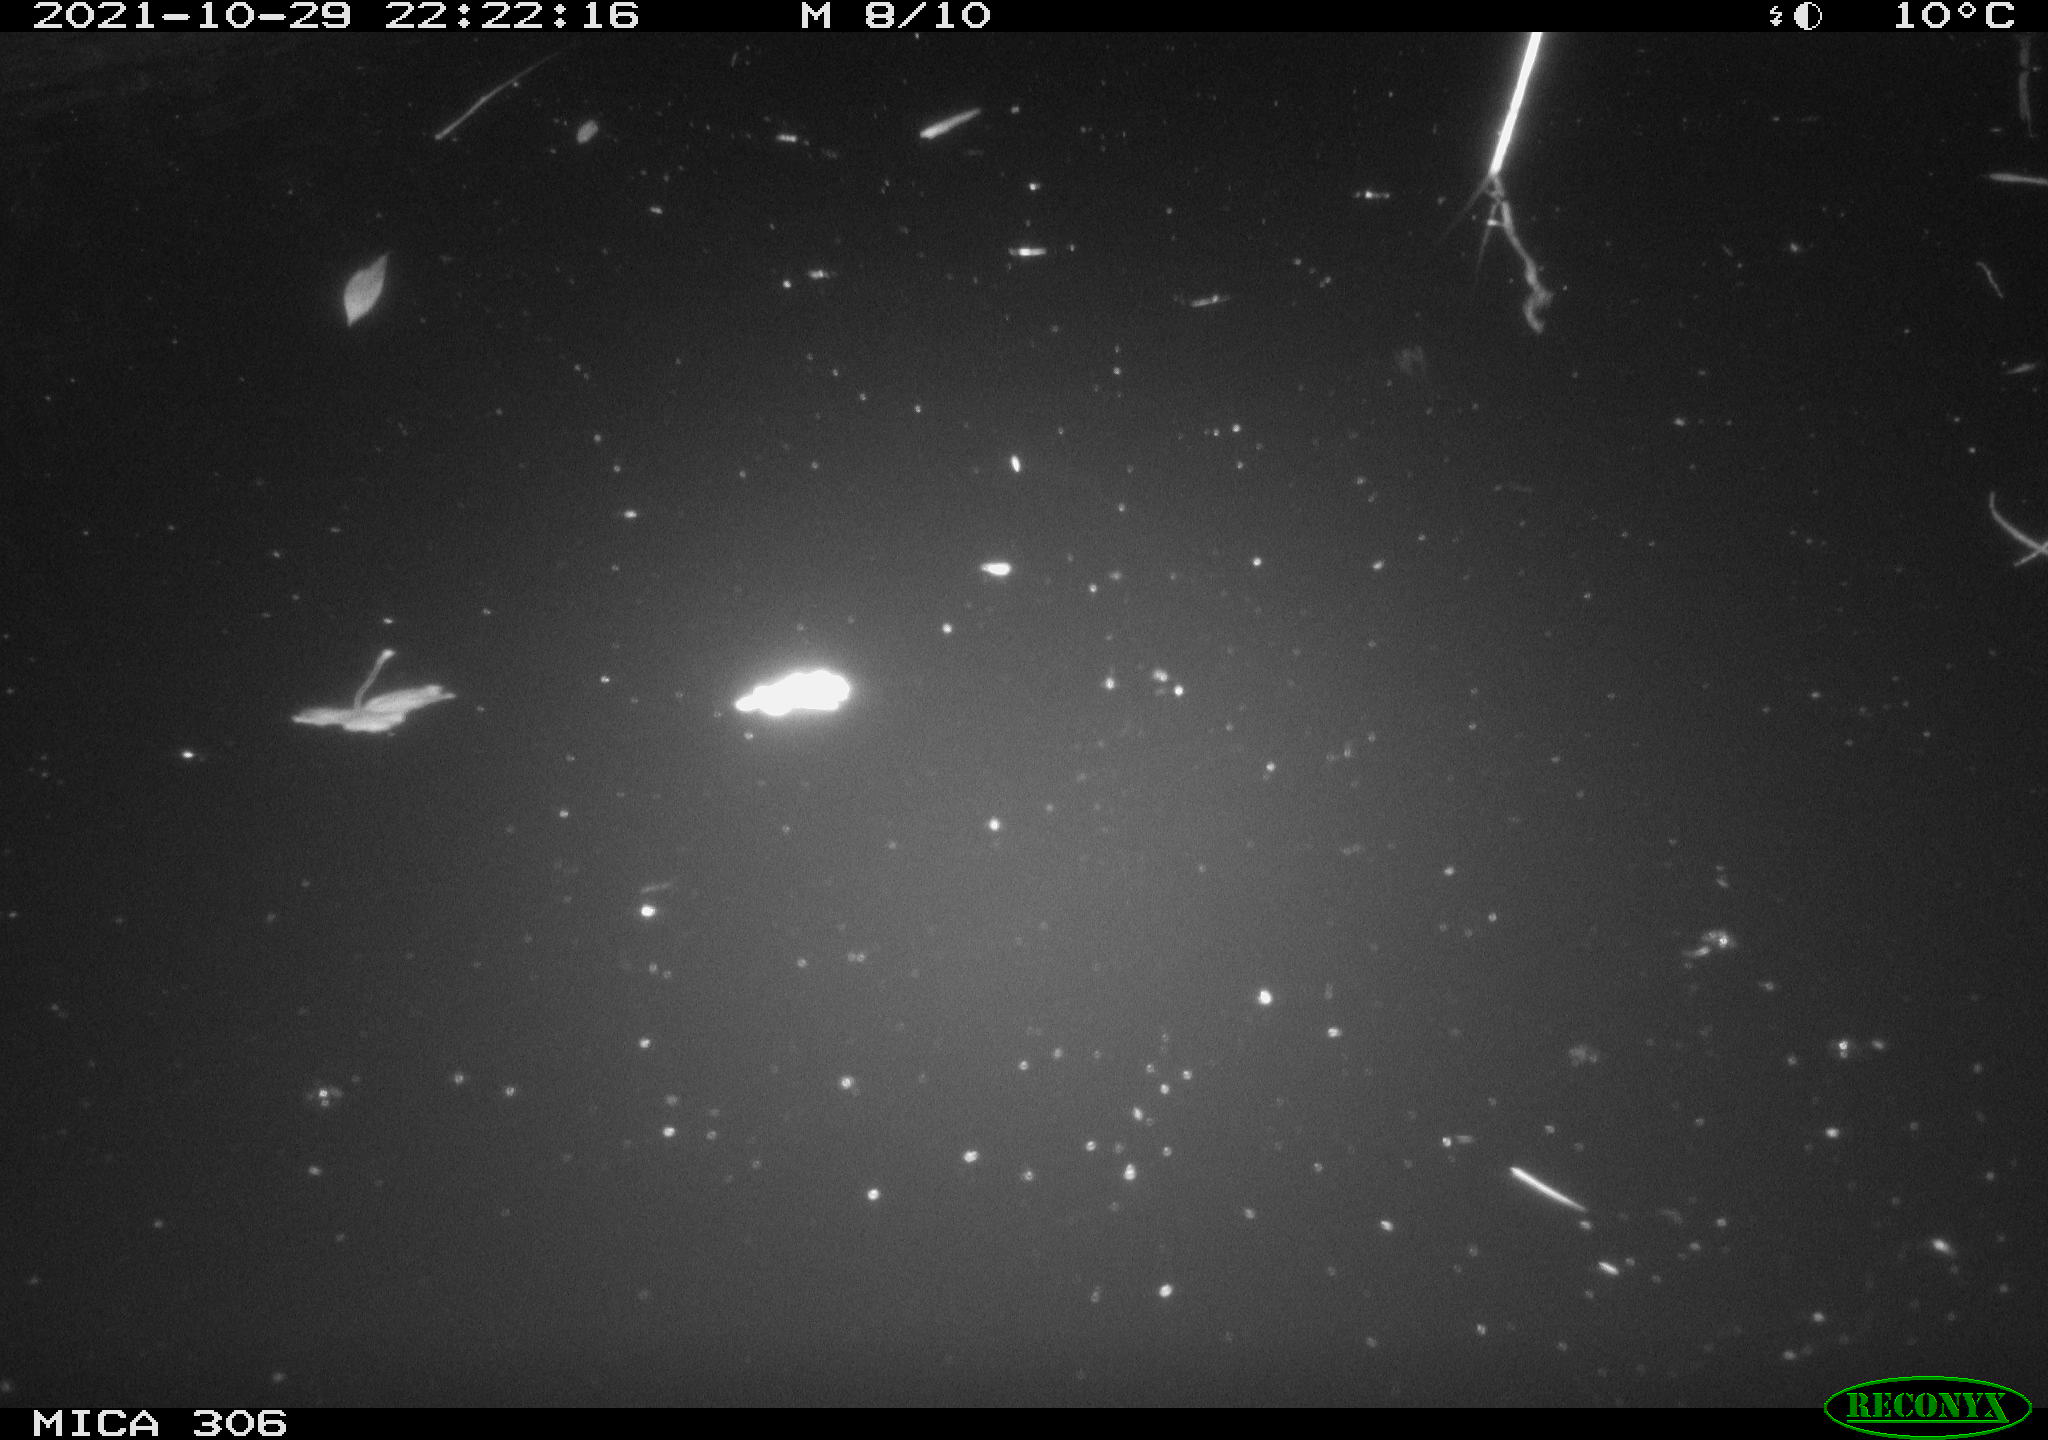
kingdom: Animalia
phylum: Chordata
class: Mammalia
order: Rodentia
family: Muridae
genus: Rattus
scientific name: Rattus norvegicus
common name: Brown rat
